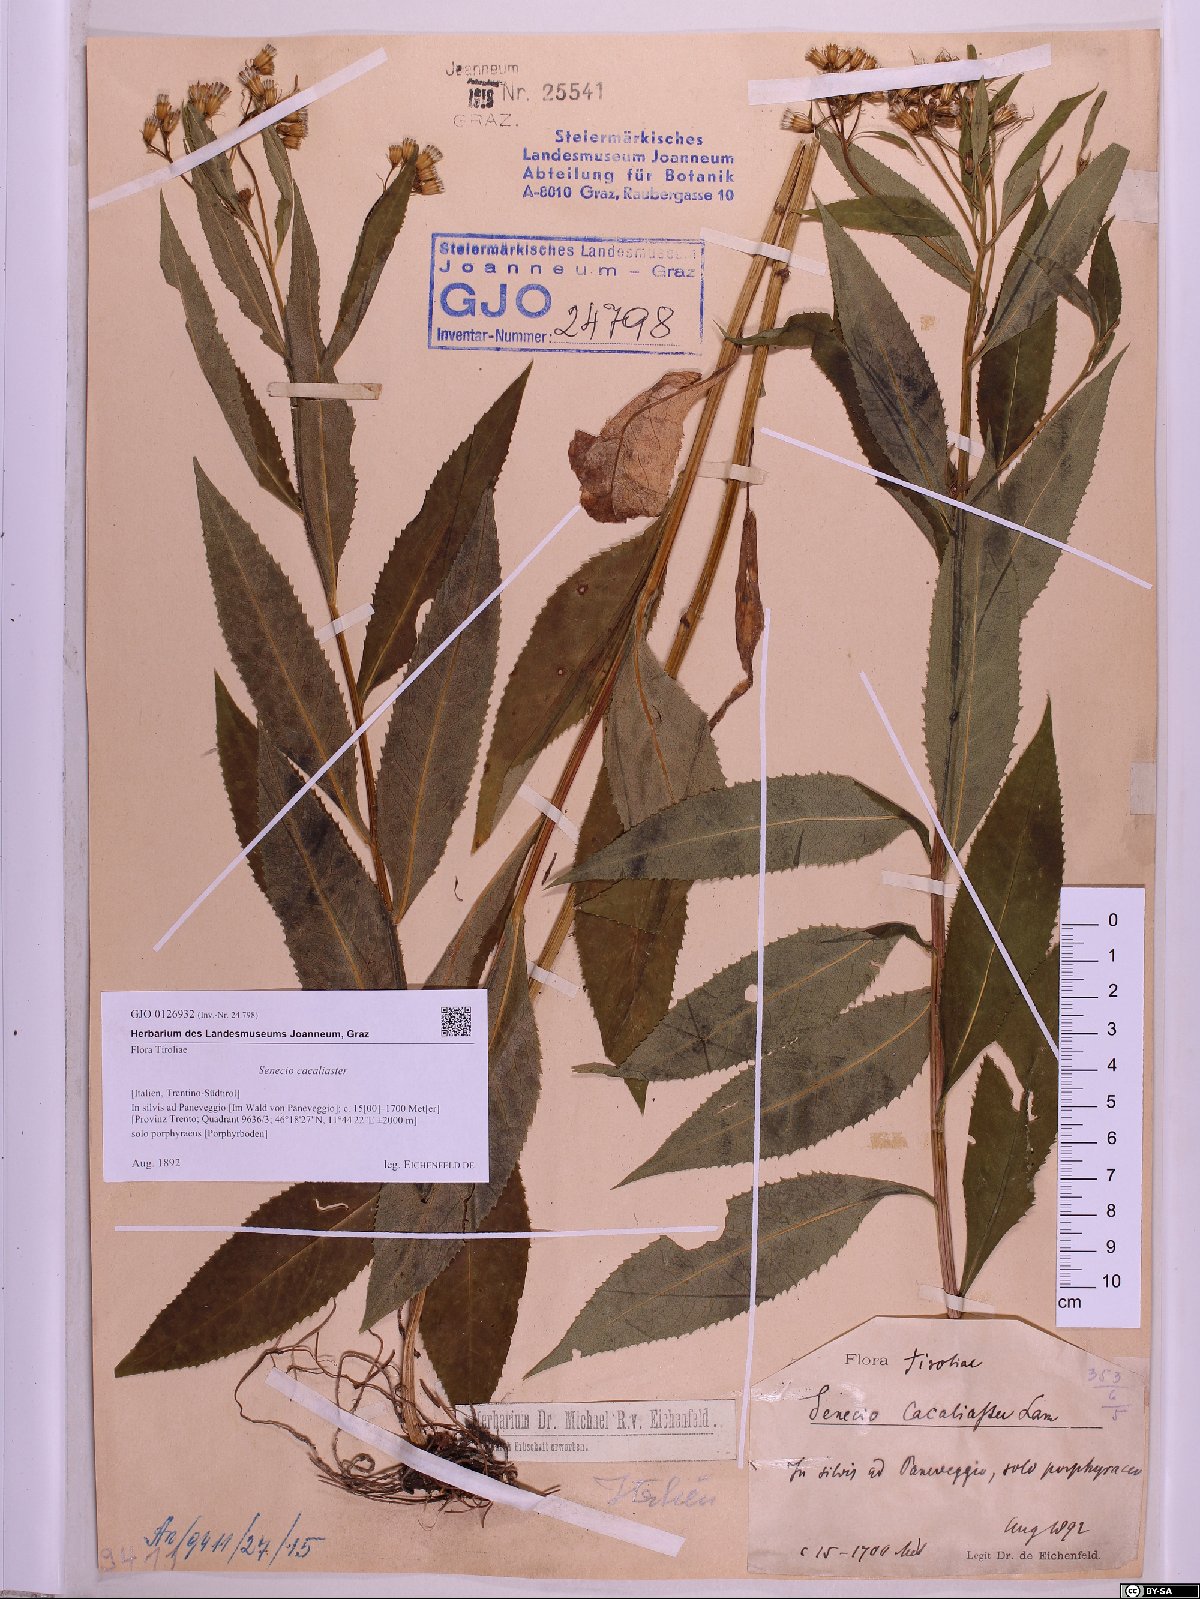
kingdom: Plantae
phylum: Tracheophyta
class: Magnoliopsida
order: Asterales
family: Asteraceae
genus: Senecio
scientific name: Senecio cacaliaster
